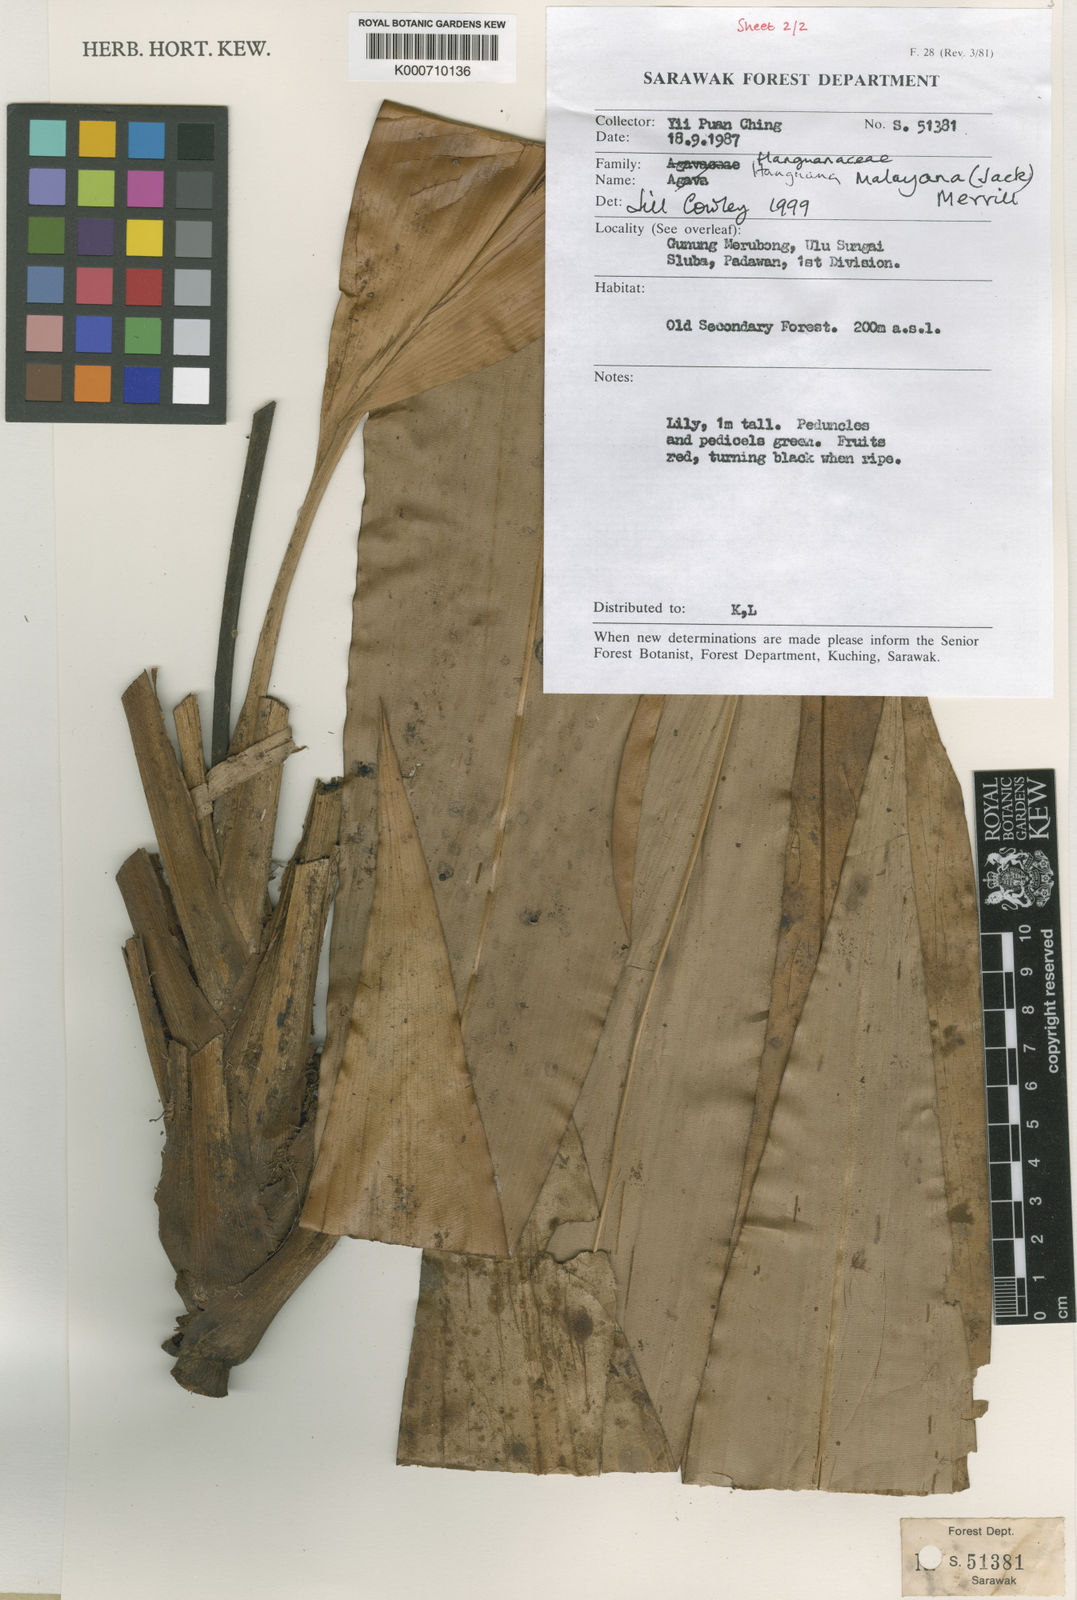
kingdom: Plantae
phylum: Tracheophyta
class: Liliopsida
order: Commelinales
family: Hanguanaceae
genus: Hanguana
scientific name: Hanguana malayana
